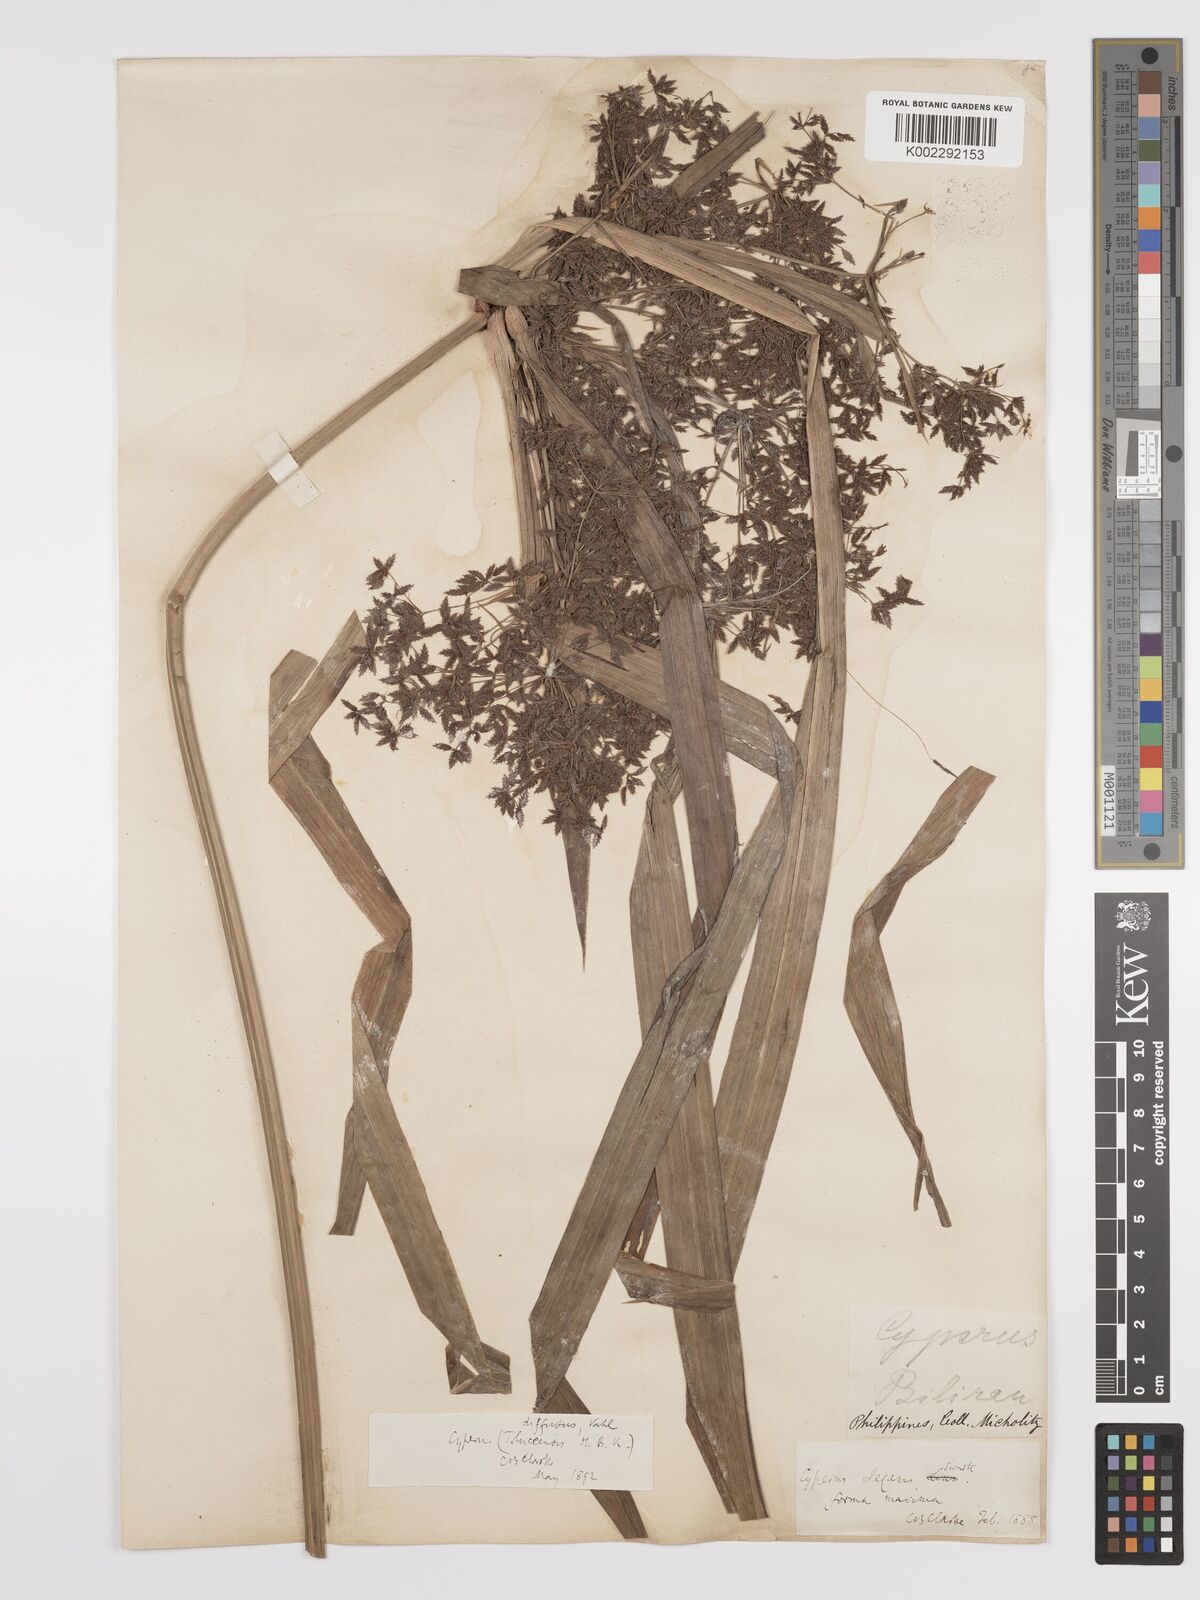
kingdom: Plantae
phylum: Tracheophyta
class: Liliopsida
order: Poales
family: Cyperaceae
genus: Cyperus
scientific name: Cyperus diffusus
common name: Dwarf umbrella grass
